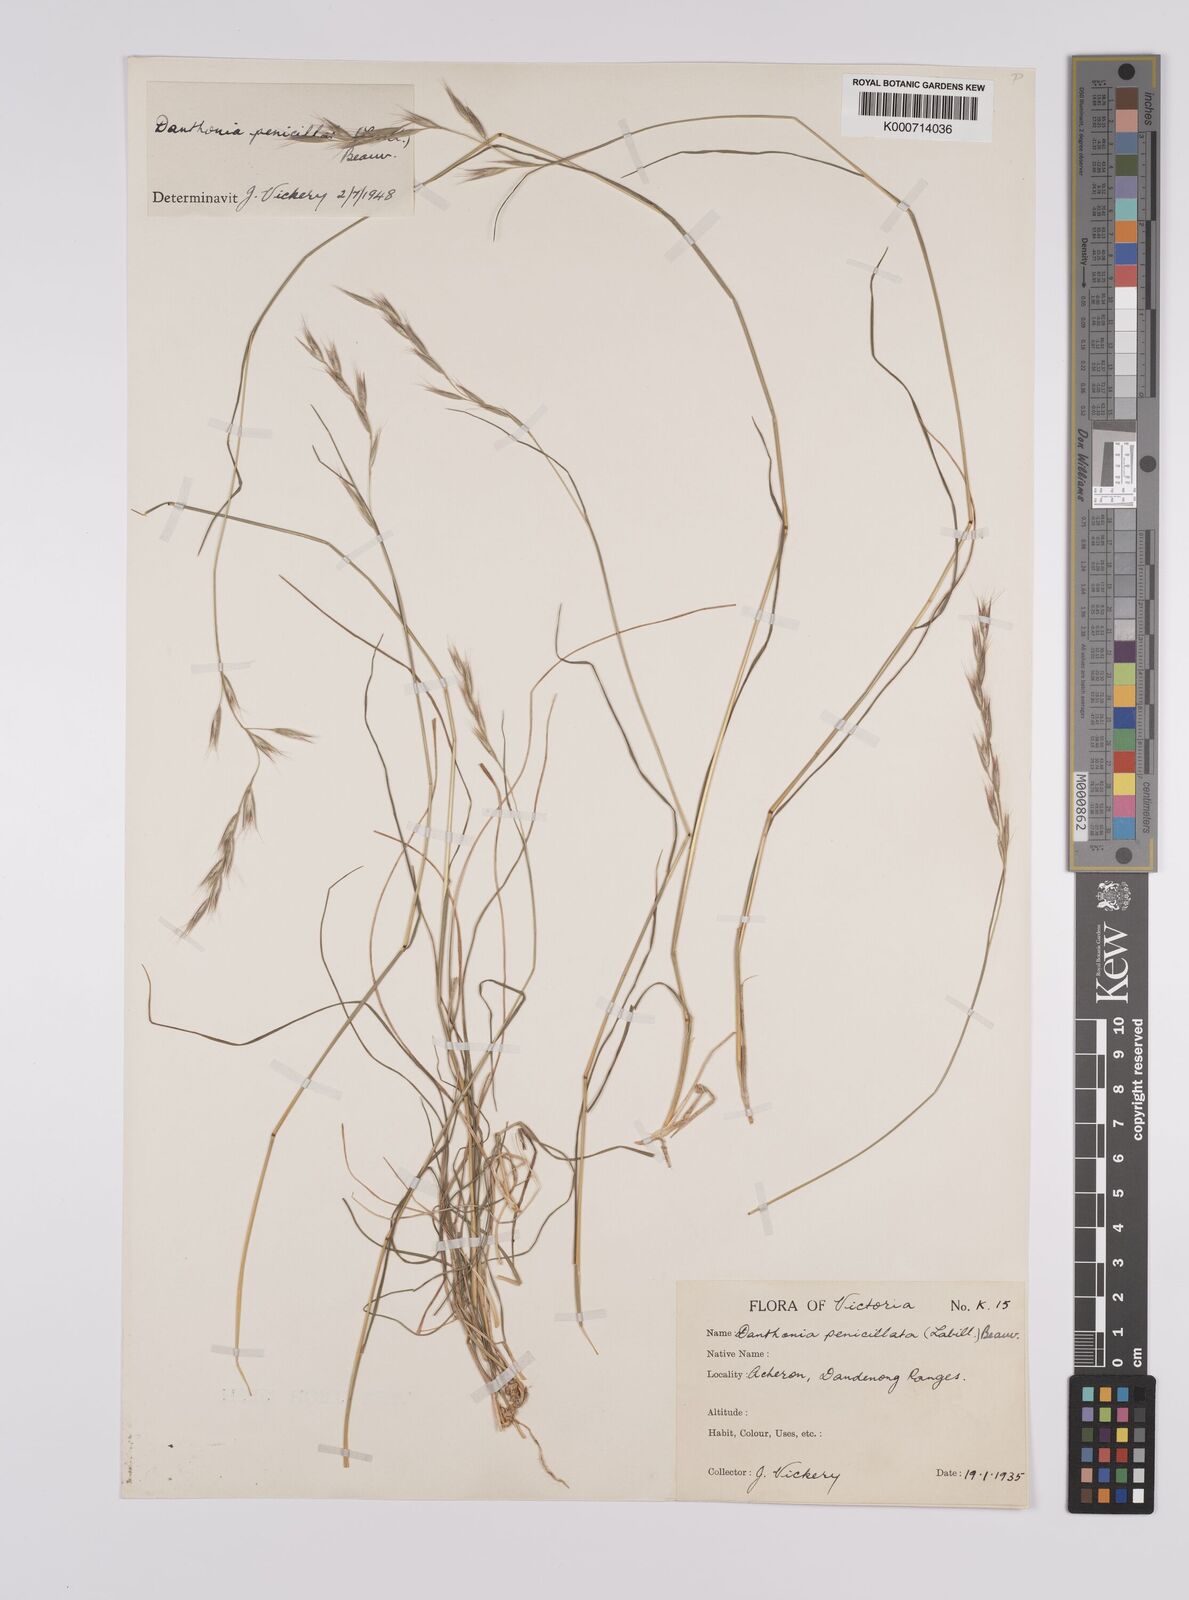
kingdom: Plantae
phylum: Tracheophyta
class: Liliopsida
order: Poales
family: Poaceae
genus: Rytidosperma
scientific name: Rytidosperma penicillatum
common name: Hairy wallaby grass
